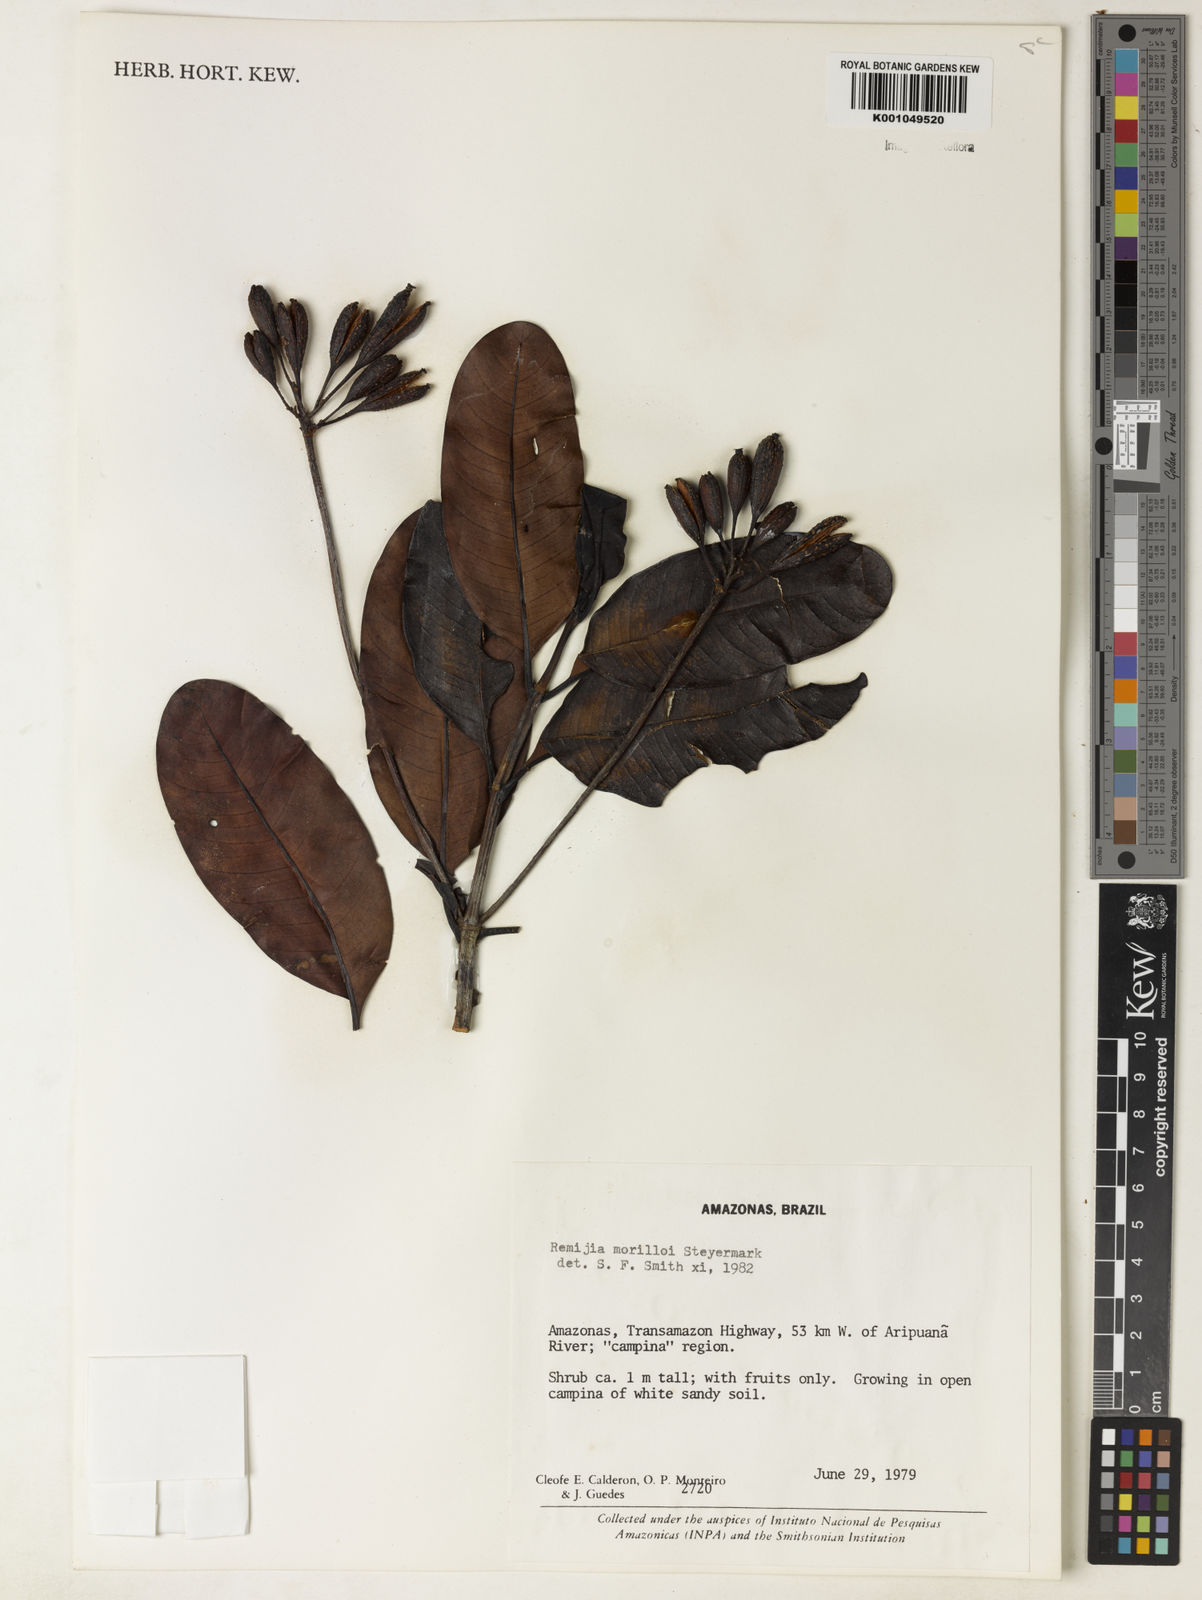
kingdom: Plantae
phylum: Tracheophyta
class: Magnoliopsida
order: Gentianales
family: Rubiaceae
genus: Remijia
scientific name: Remijia morilloi
